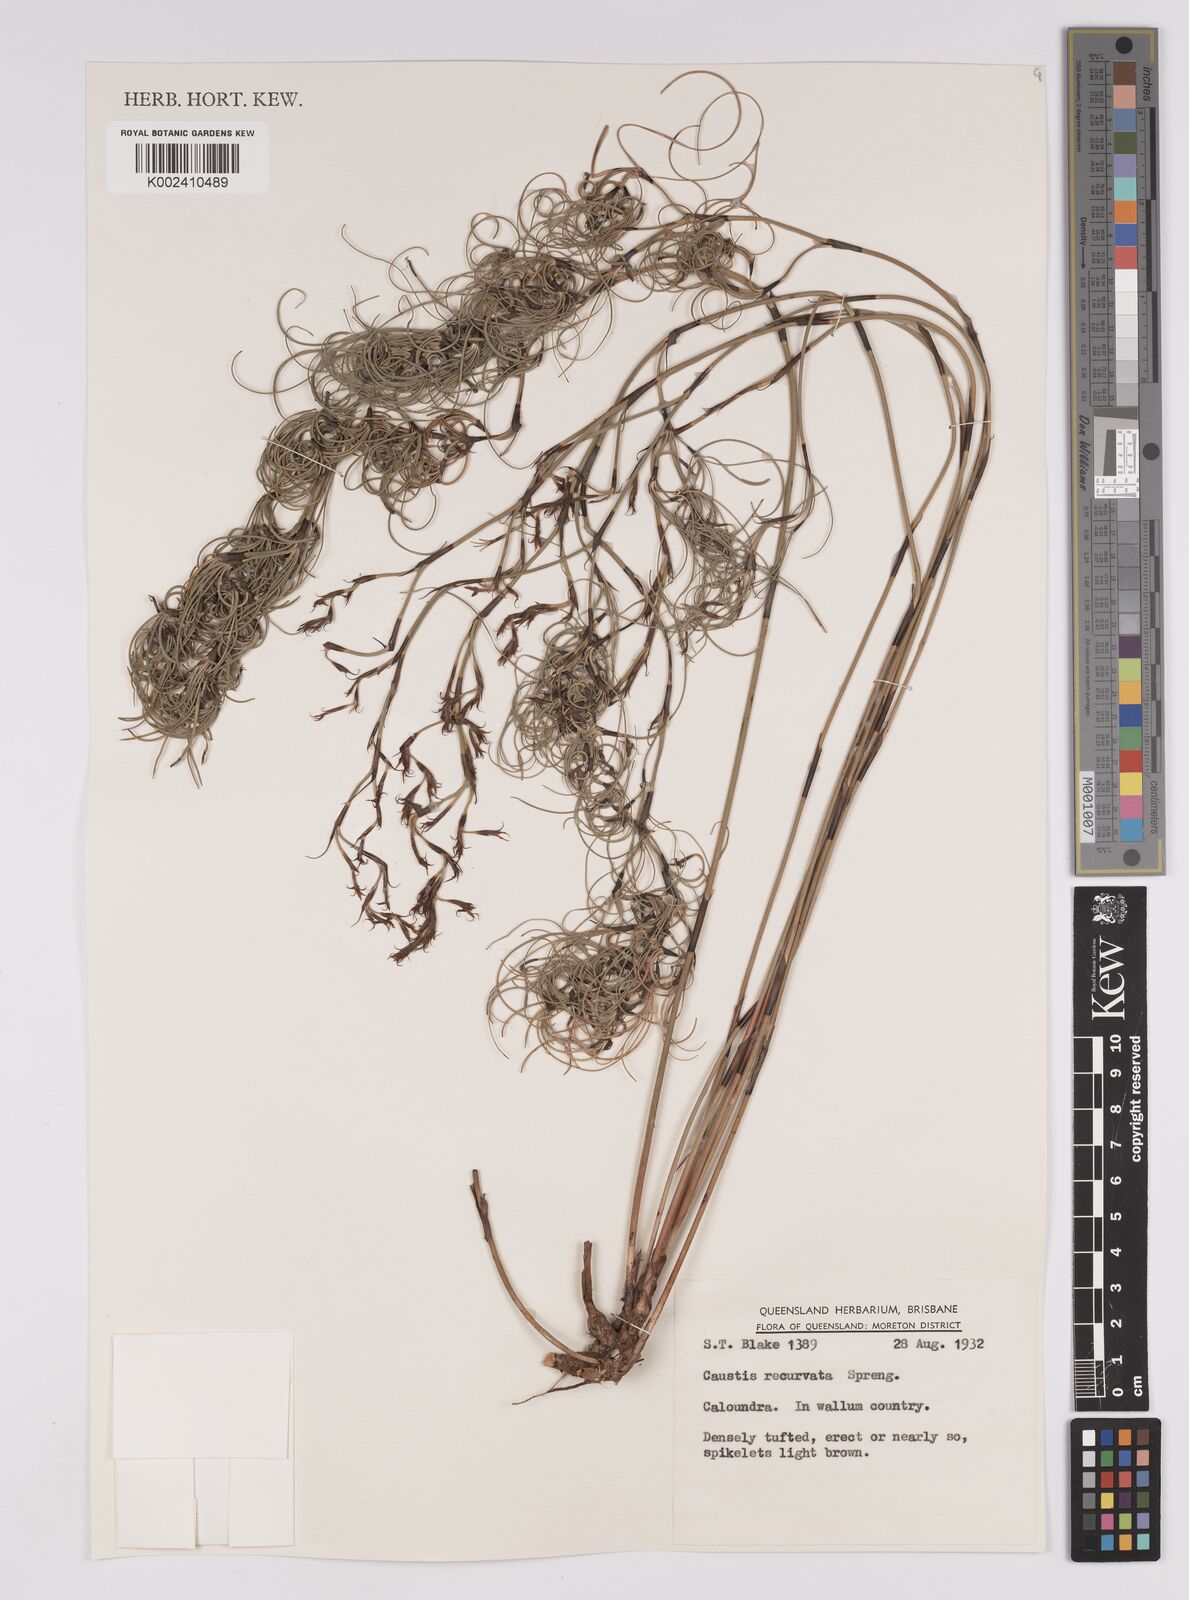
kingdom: Plantae
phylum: Tracheophyta
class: Liliopsida
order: Poales
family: Cyperaceae
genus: Caustis
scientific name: Caustis recurvata
